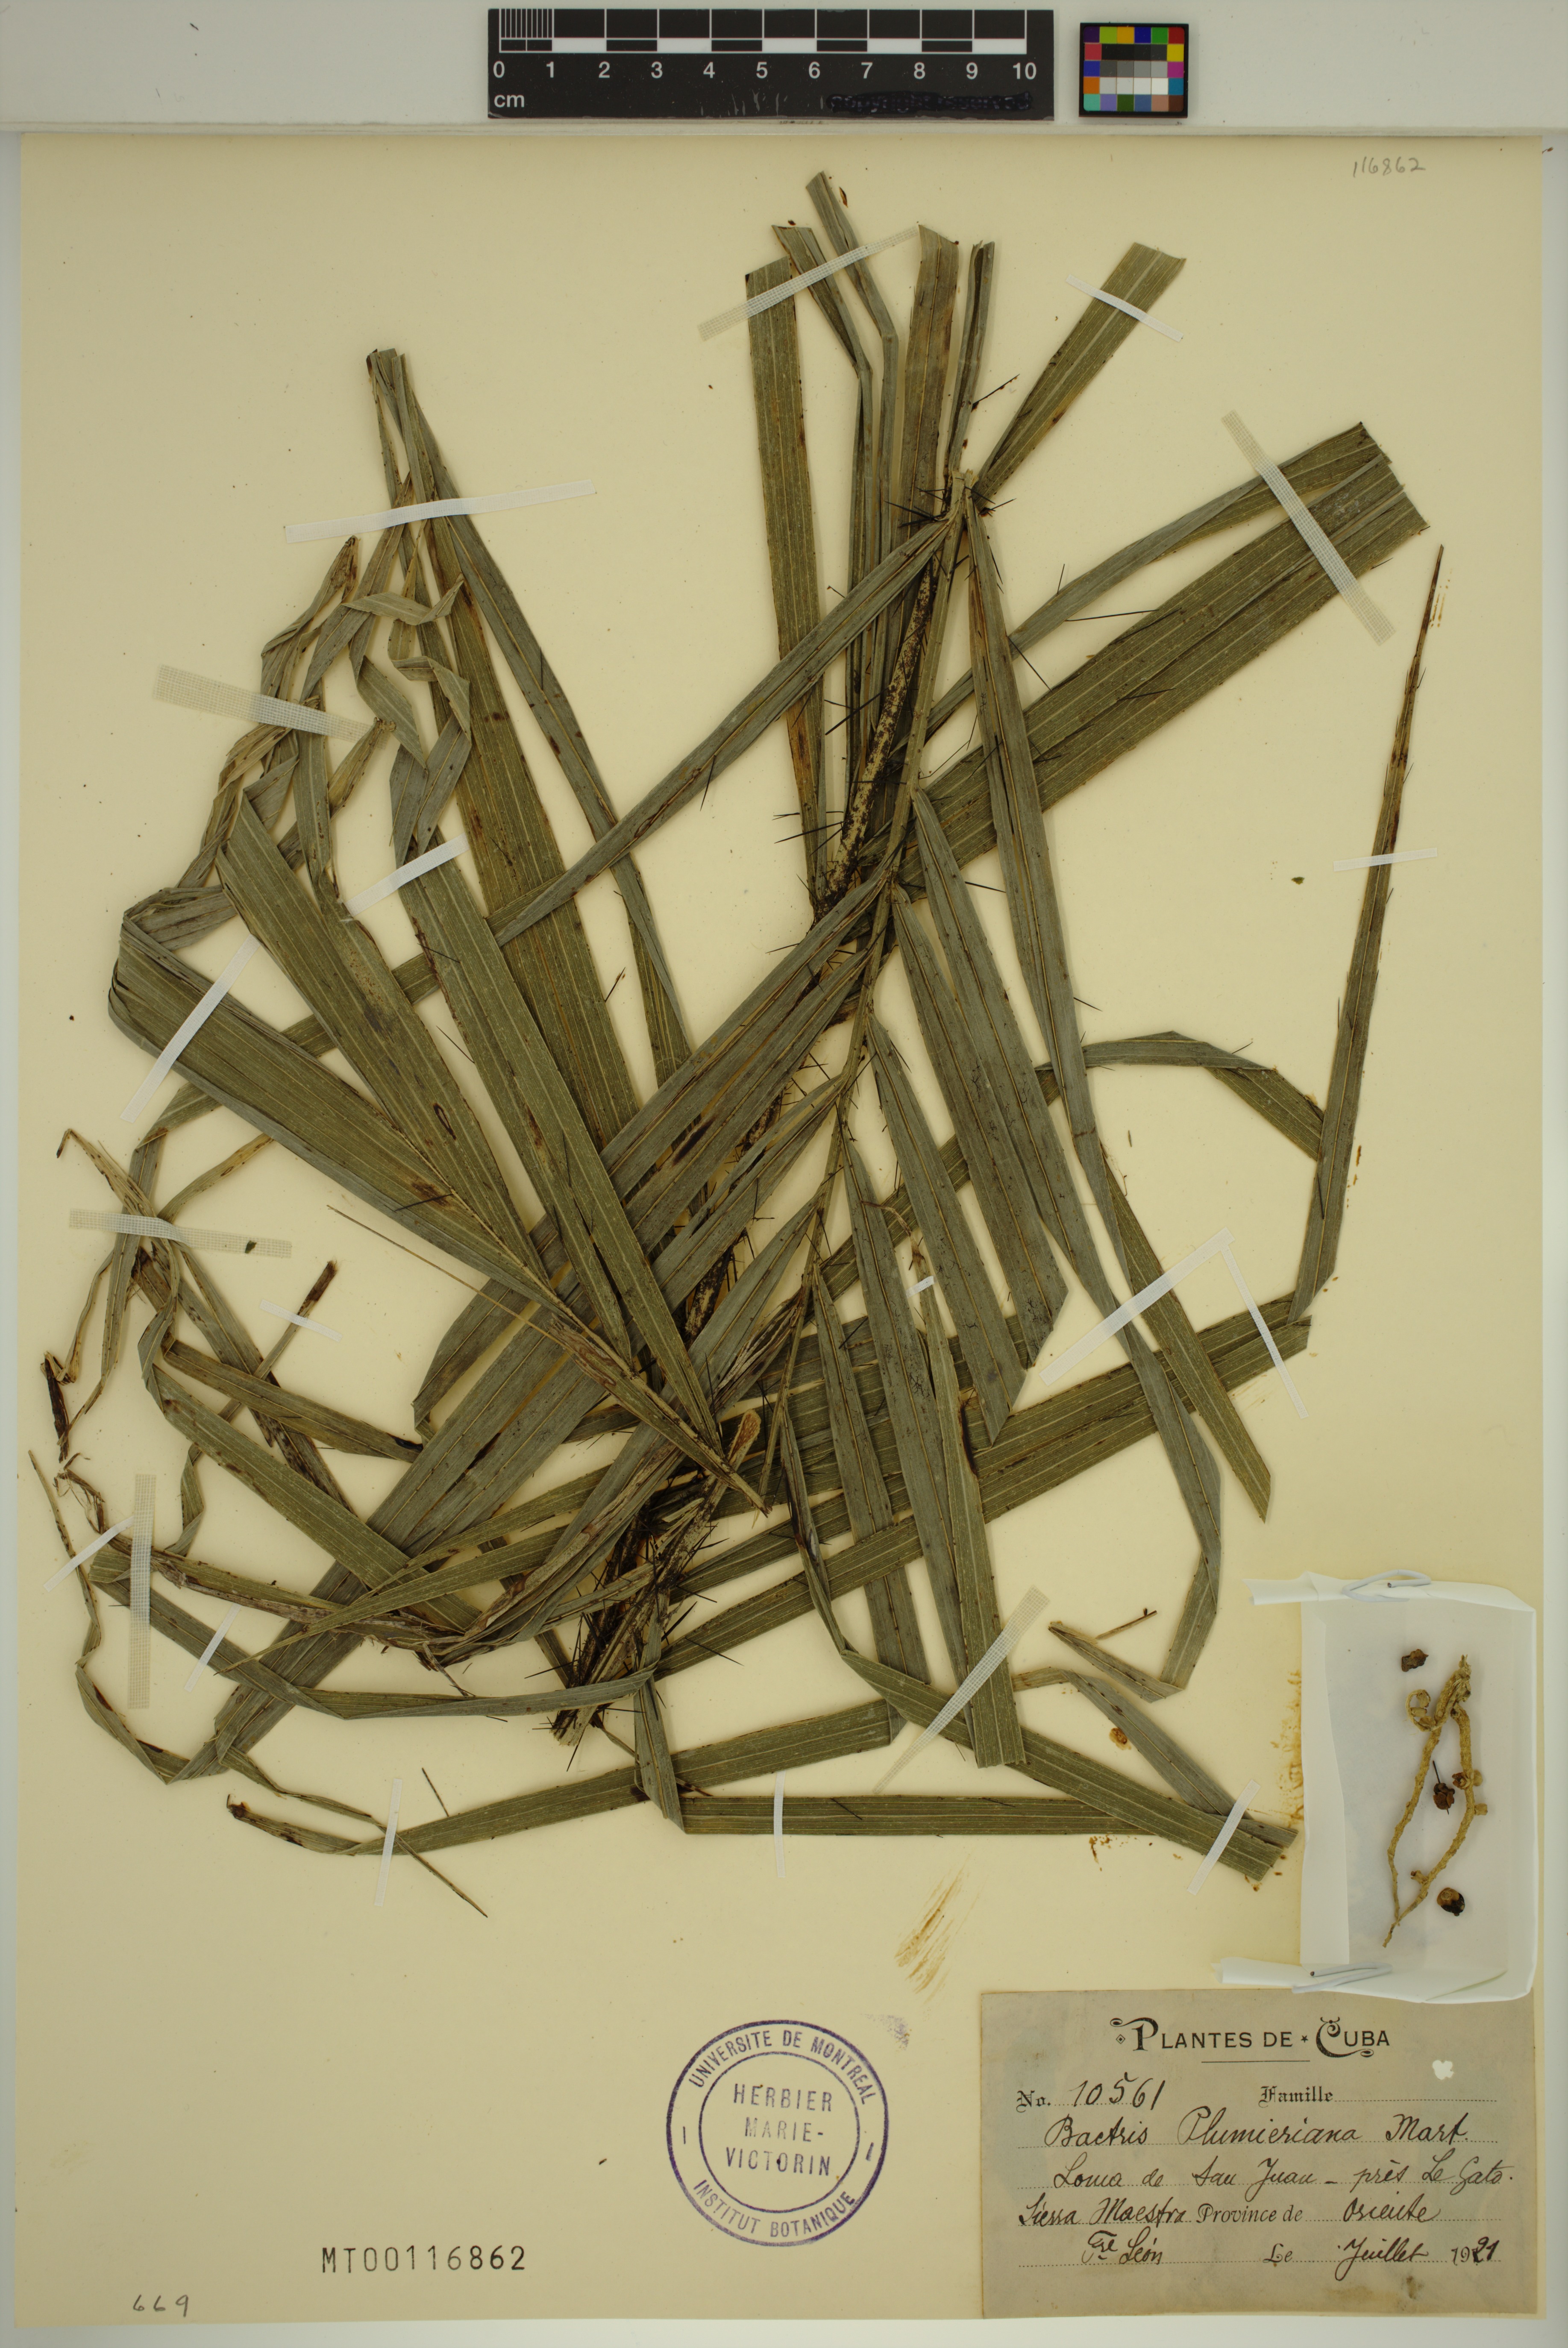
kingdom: Plantae
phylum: Tracheophyta
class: Liliopsida
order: Arecales
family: Arecaceae
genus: Bactris
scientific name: Bactris plumeriana
